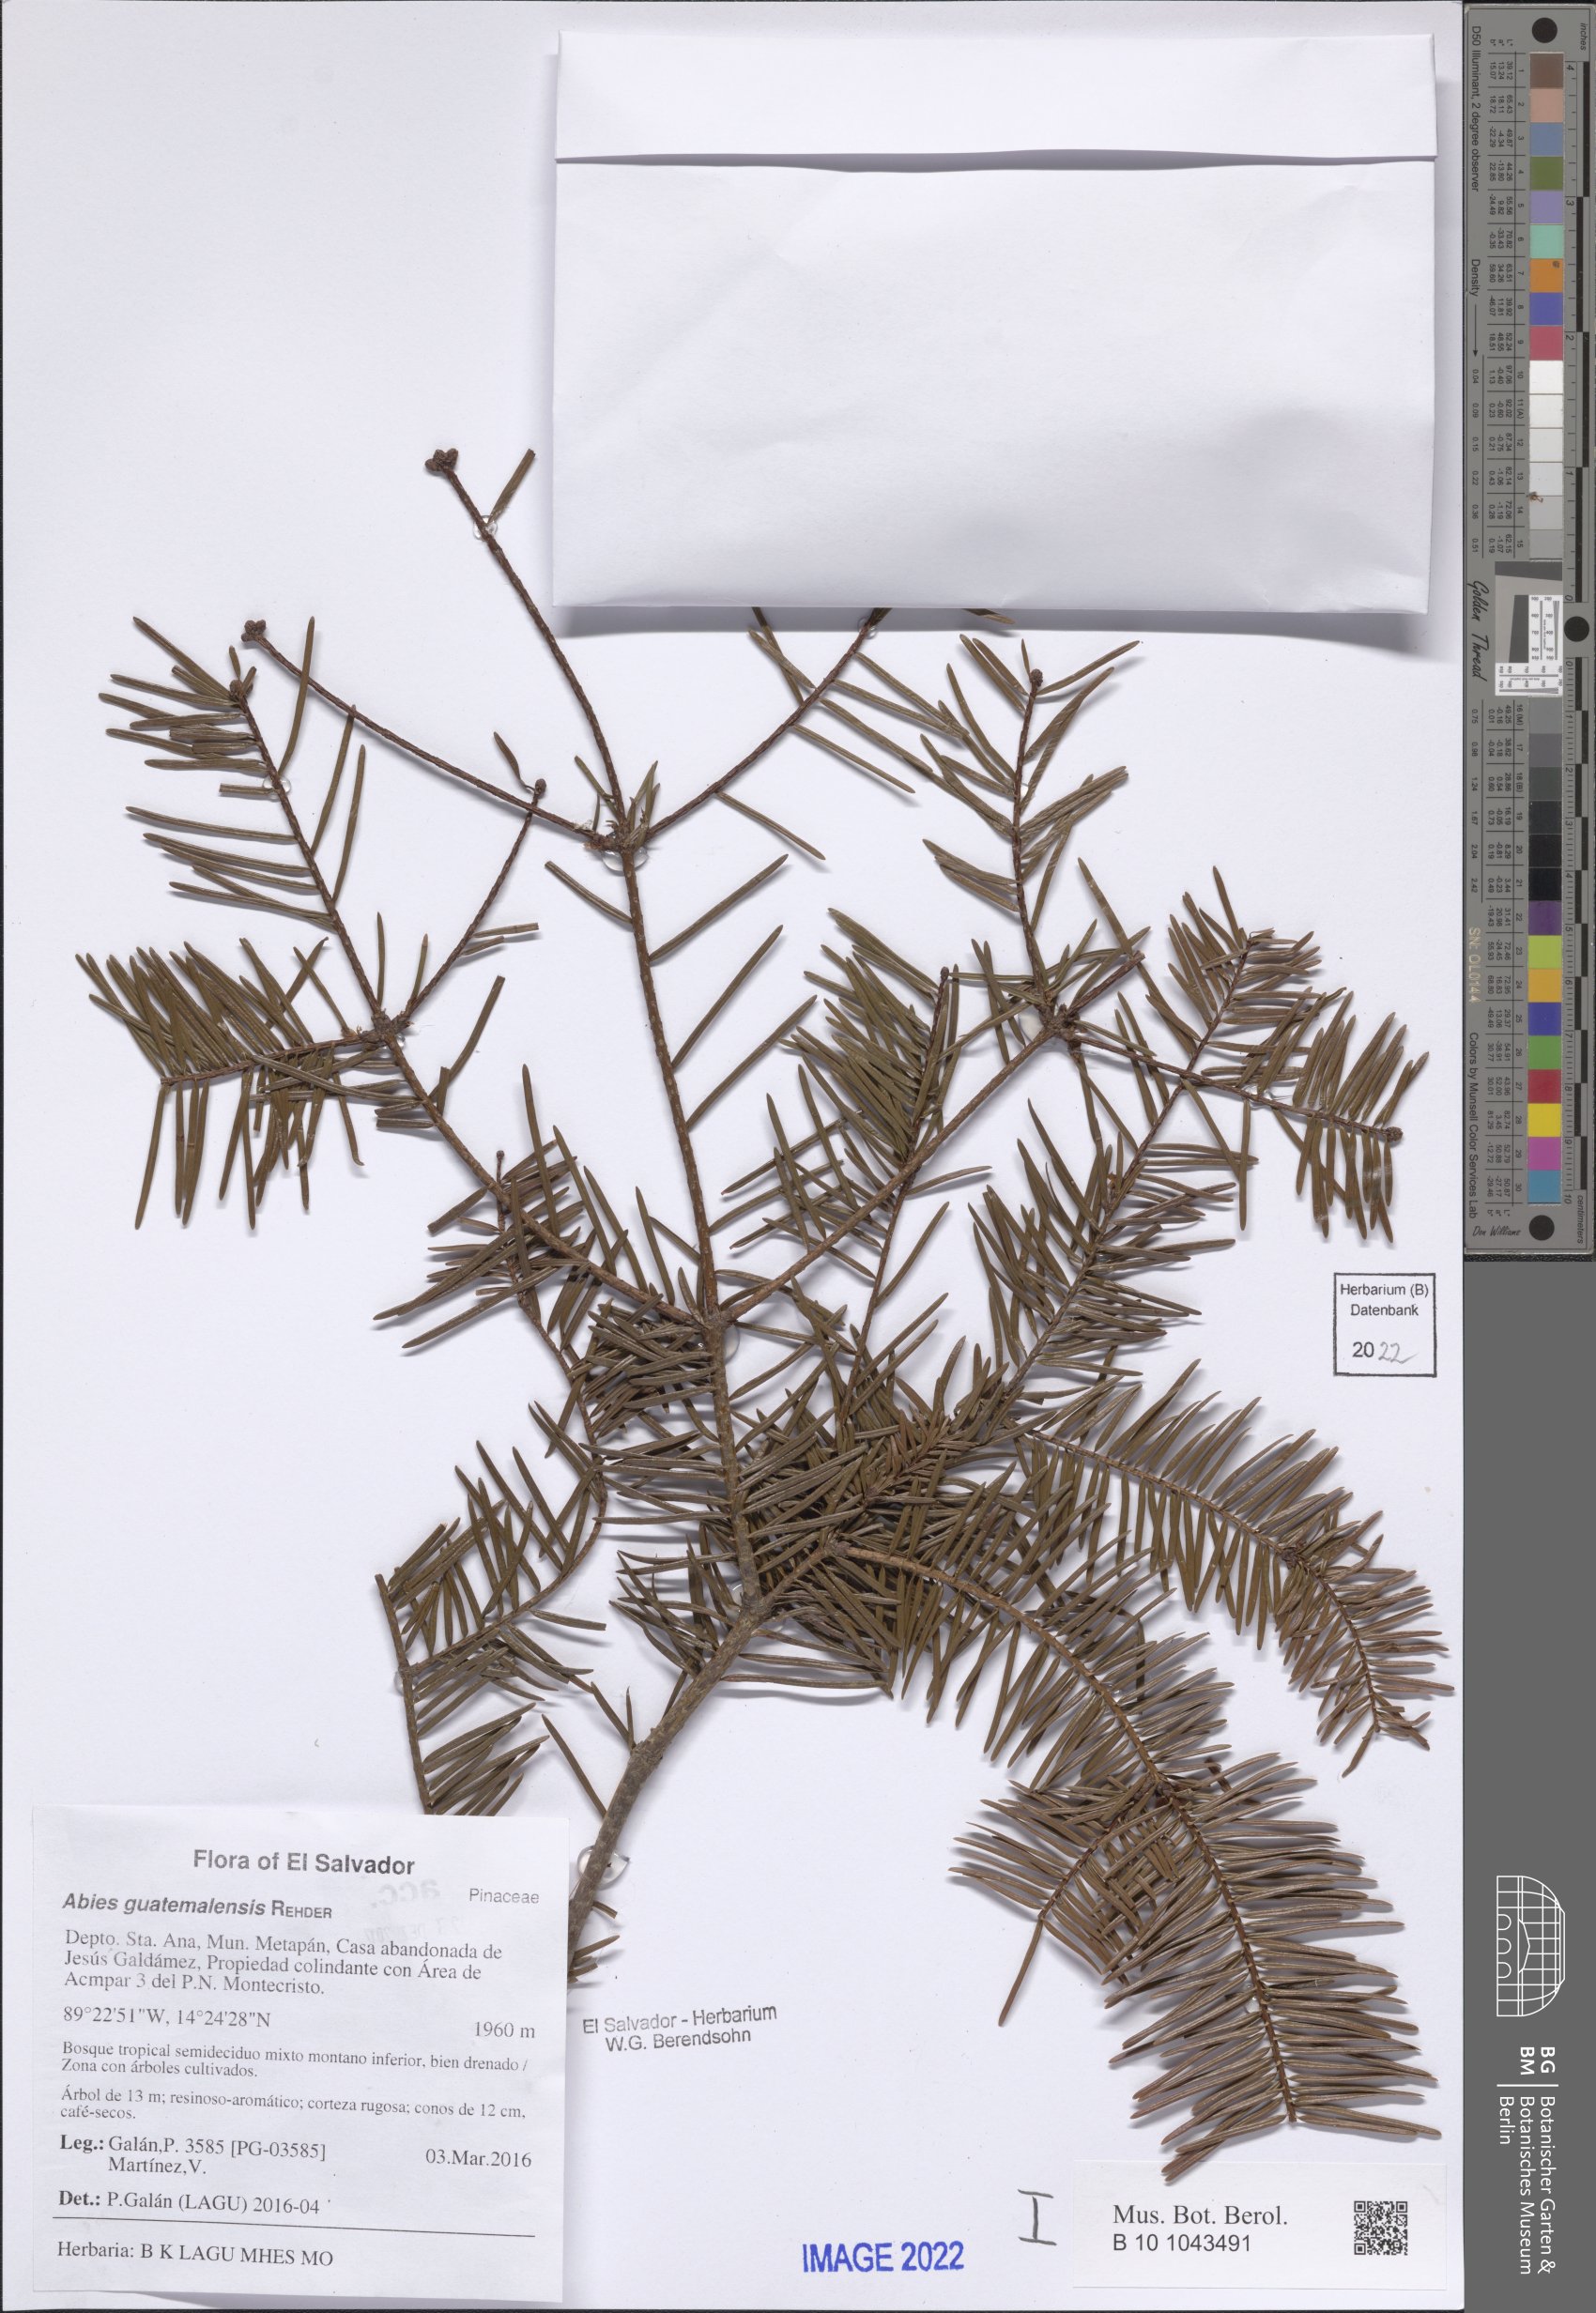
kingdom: Plantae
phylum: Tracheophyta
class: Pinopsida
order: Pinales
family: Pinaceae
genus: Abies
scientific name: Abies guatemalensis
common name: Guatemalan fir
